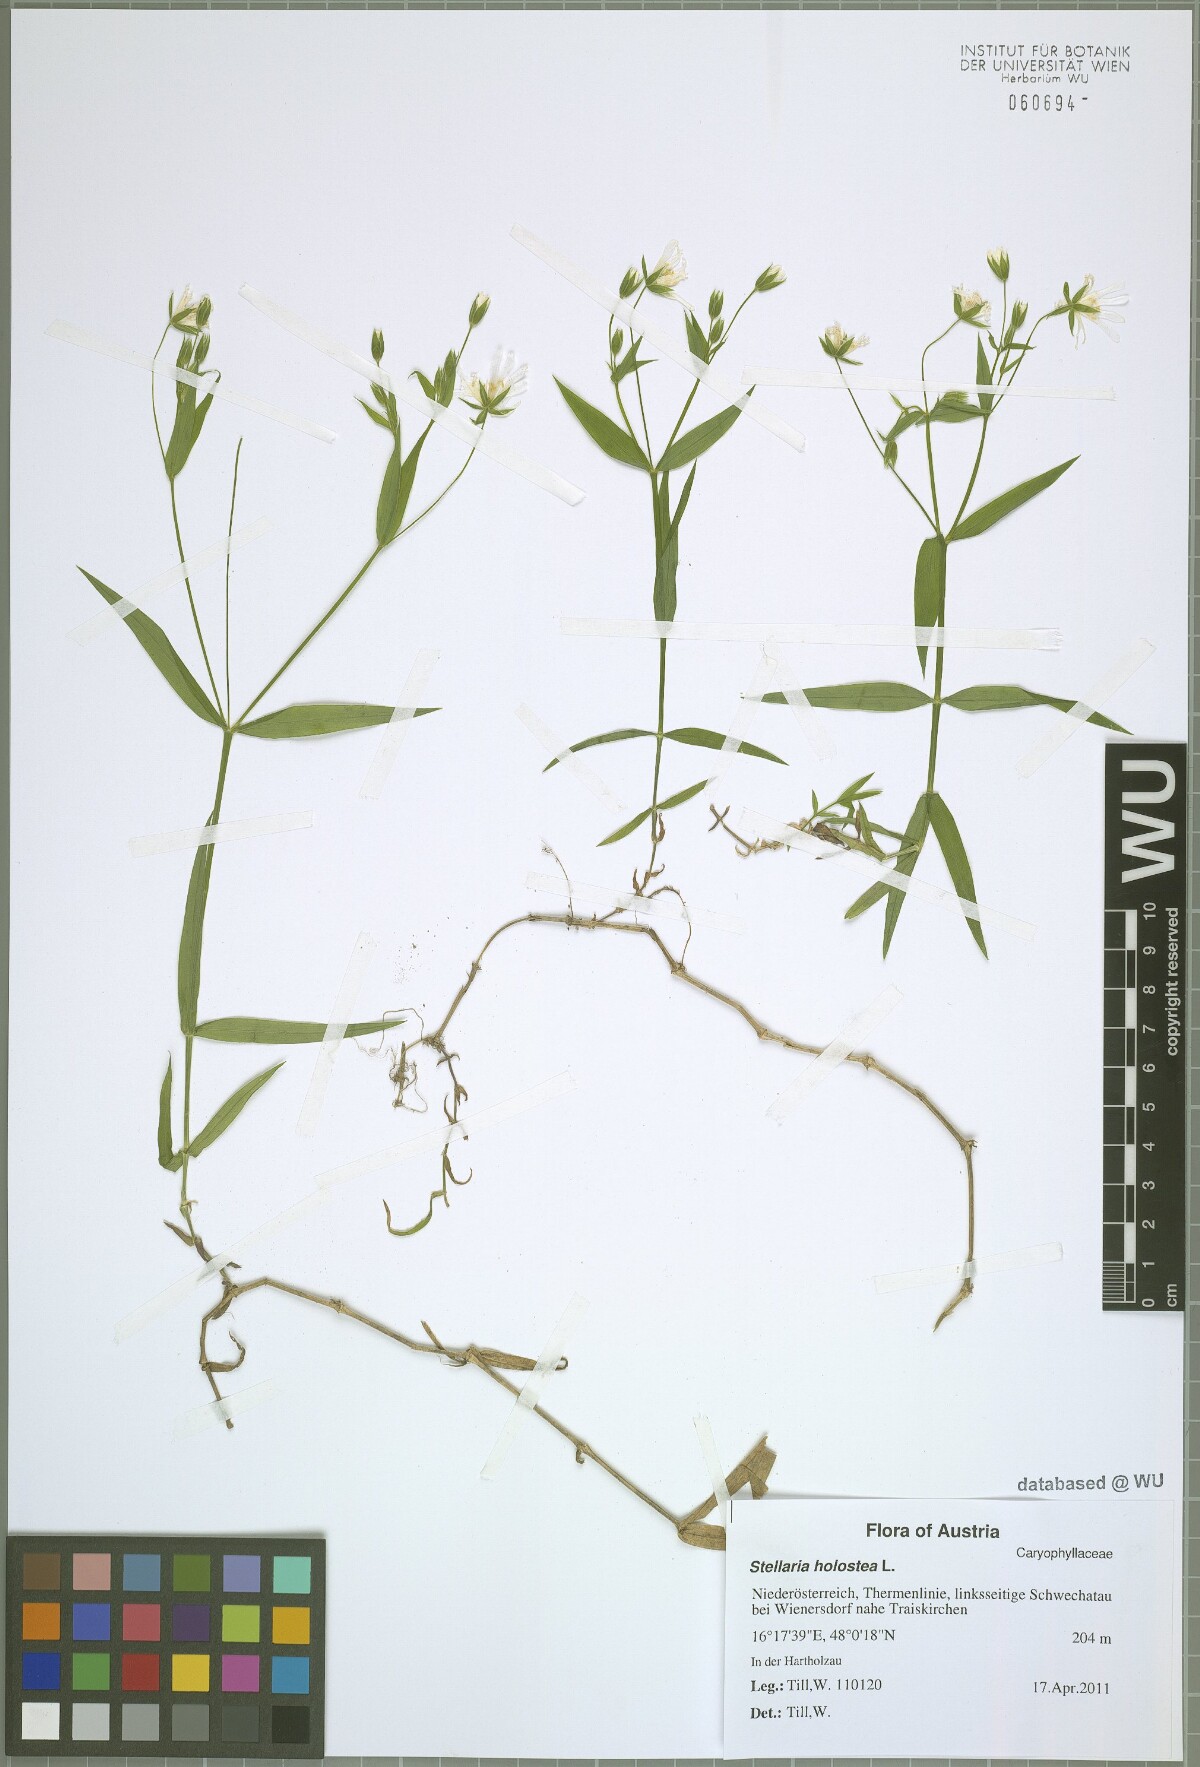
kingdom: Plantae
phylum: Tracheophyta
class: Magnoliopsida
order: Caryophyllales
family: Caryophyllaceae
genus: Rabelera
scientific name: Rabelera holostea
